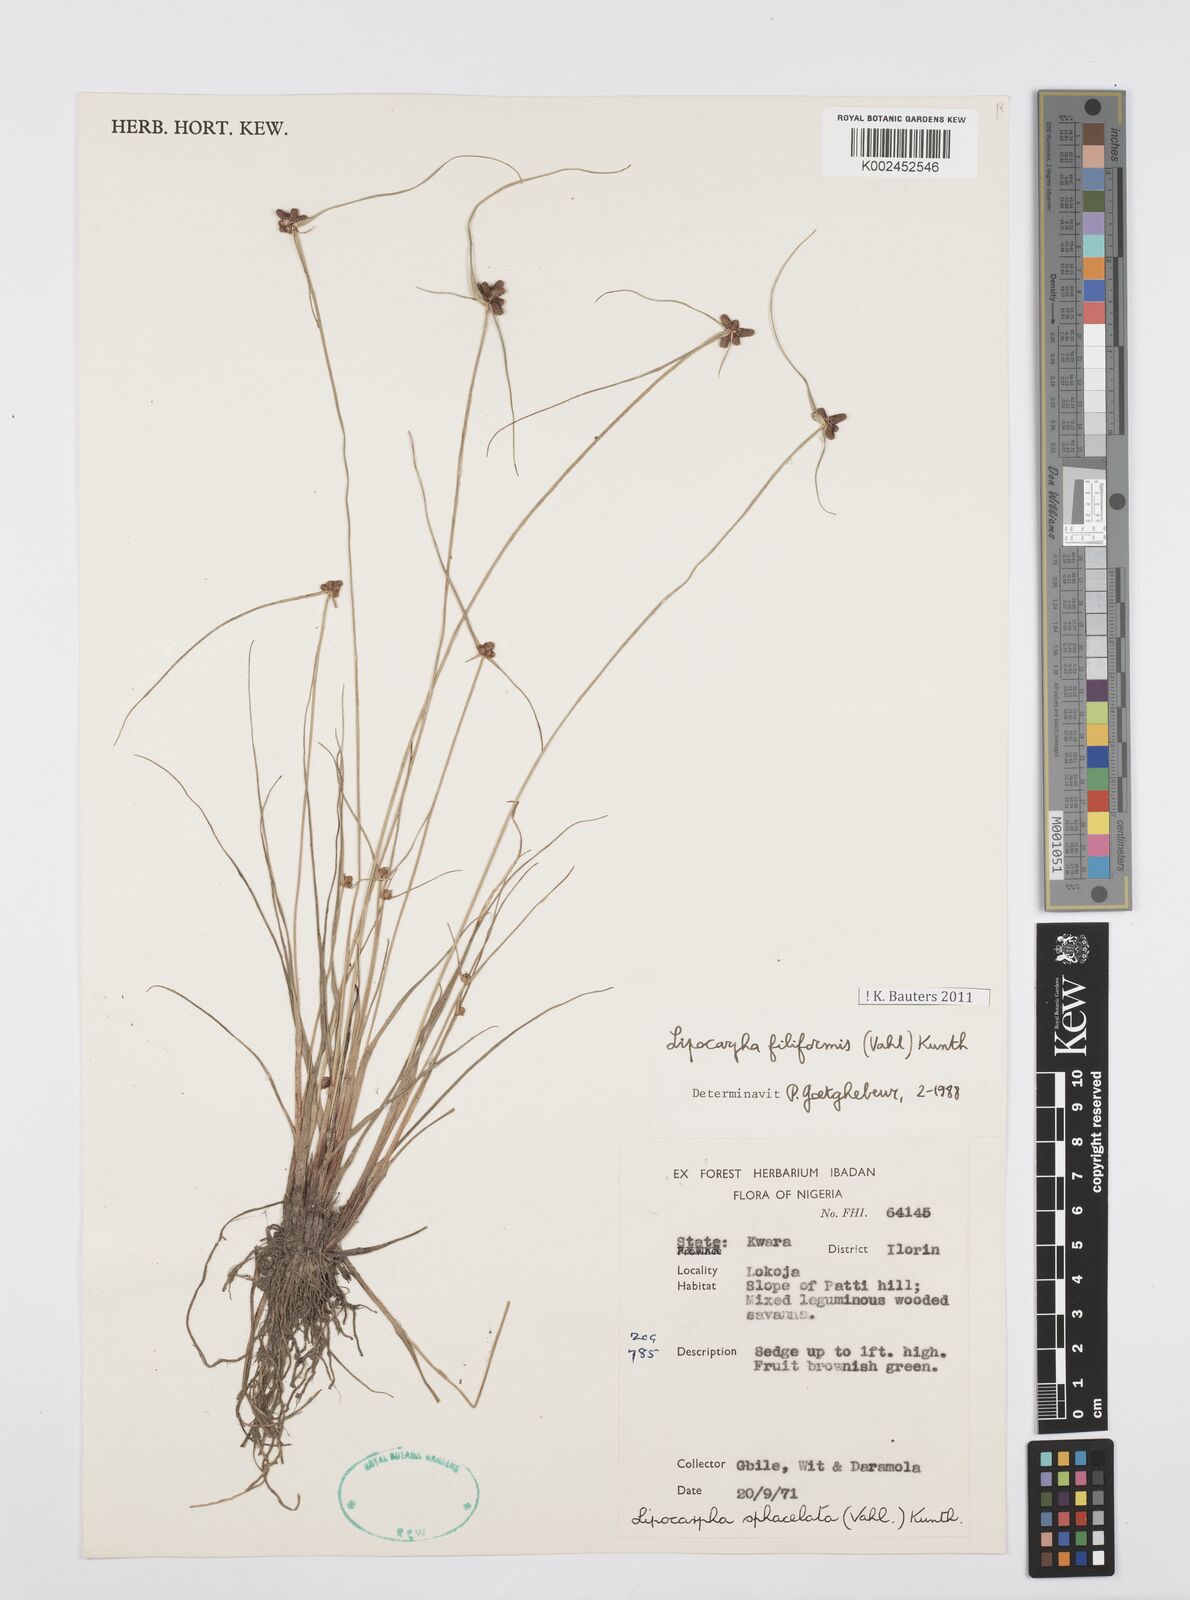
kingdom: Plantae
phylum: Tracheophyta
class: Liliopsida
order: Poales
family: Cyperaceae
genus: Cyperus
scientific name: Cyperus filiformis
